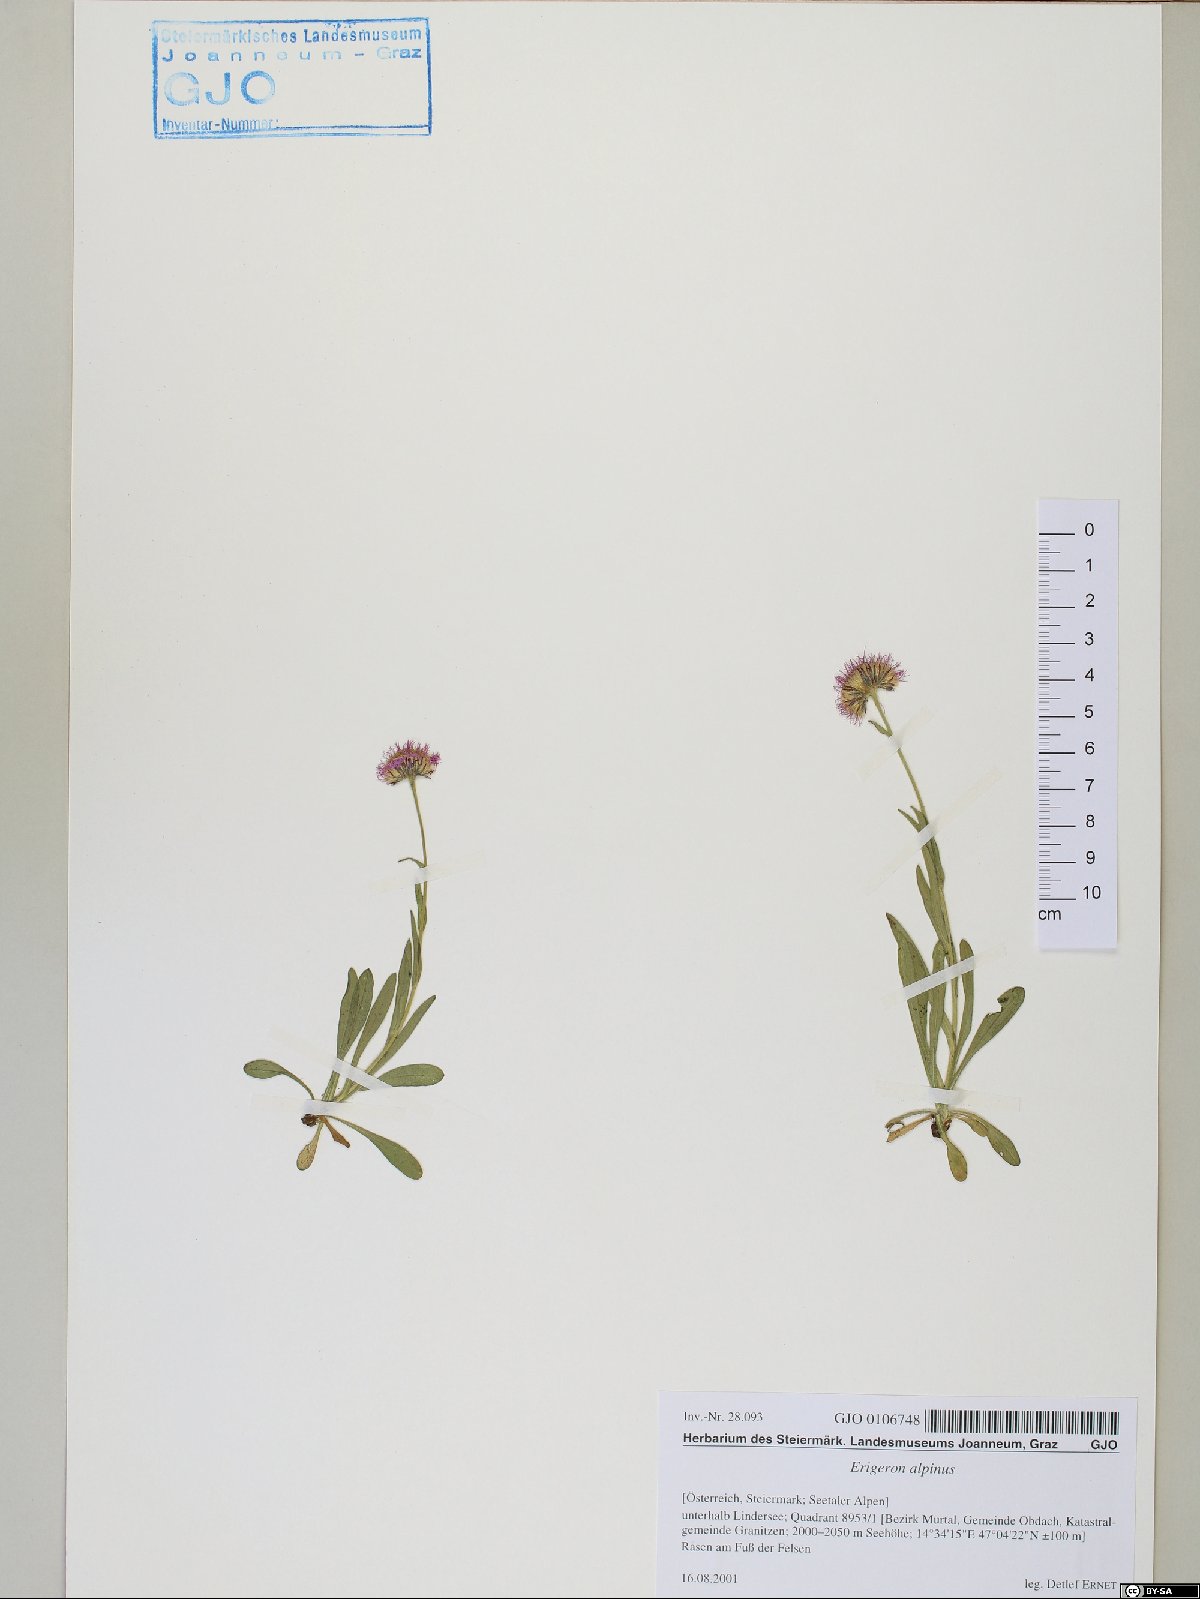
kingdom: Plantae
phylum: Tracheophyta
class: Magnoliopsida
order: Asterales
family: Asteraceae
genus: Erigeron
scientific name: Erigeron alpinus
